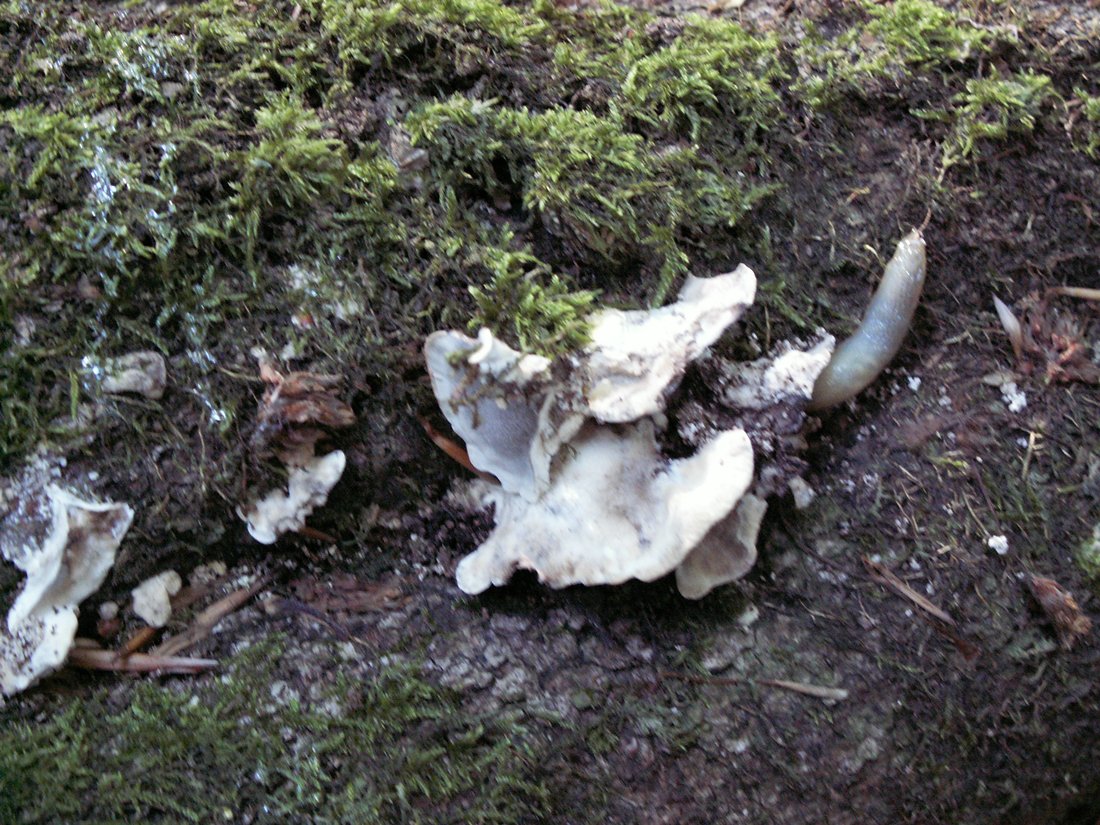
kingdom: Fungi
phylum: Basidiomycota
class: Agaricomycetes
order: Polyporales
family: Phanerochaetaceae
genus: Bjerkandera
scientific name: Bjerkandera adusta
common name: sveden sodporesvamp
